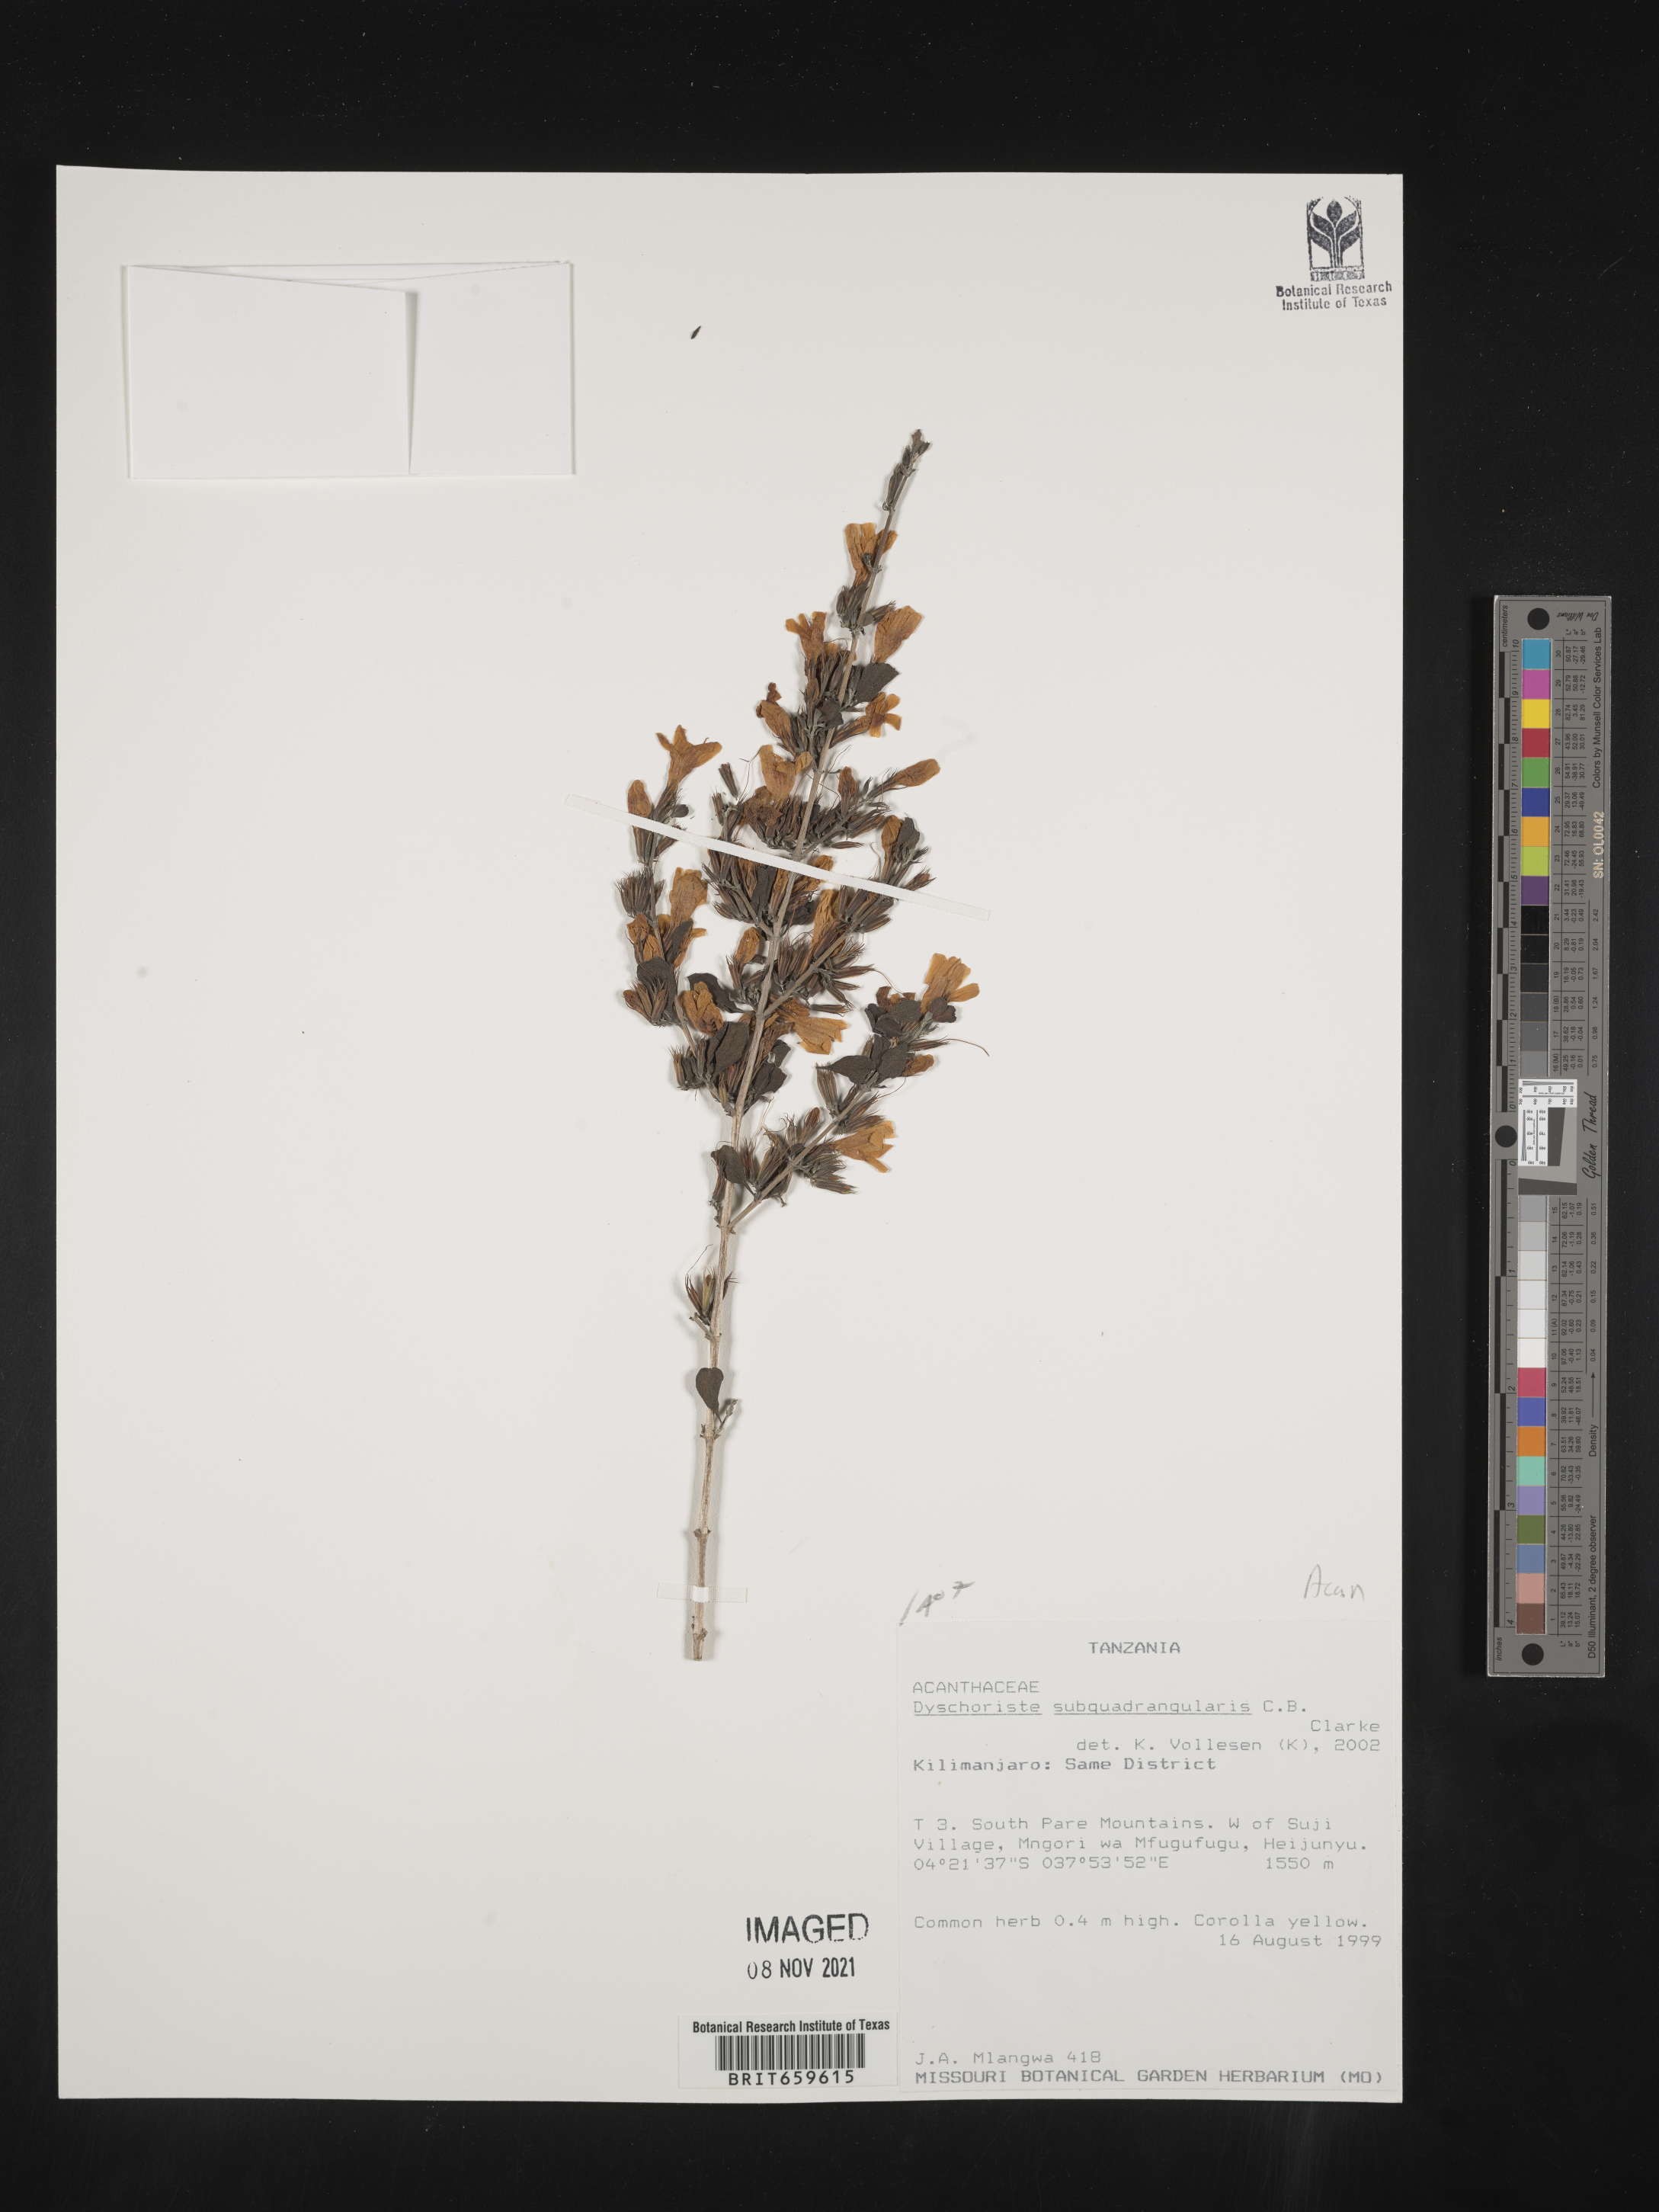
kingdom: Plantae
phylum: Tracheophyta
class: Magnoliopsida
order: Lamiales
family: Acanthaceae
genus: Dyschoriste
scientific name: Dyschoriste subquadrangularis
